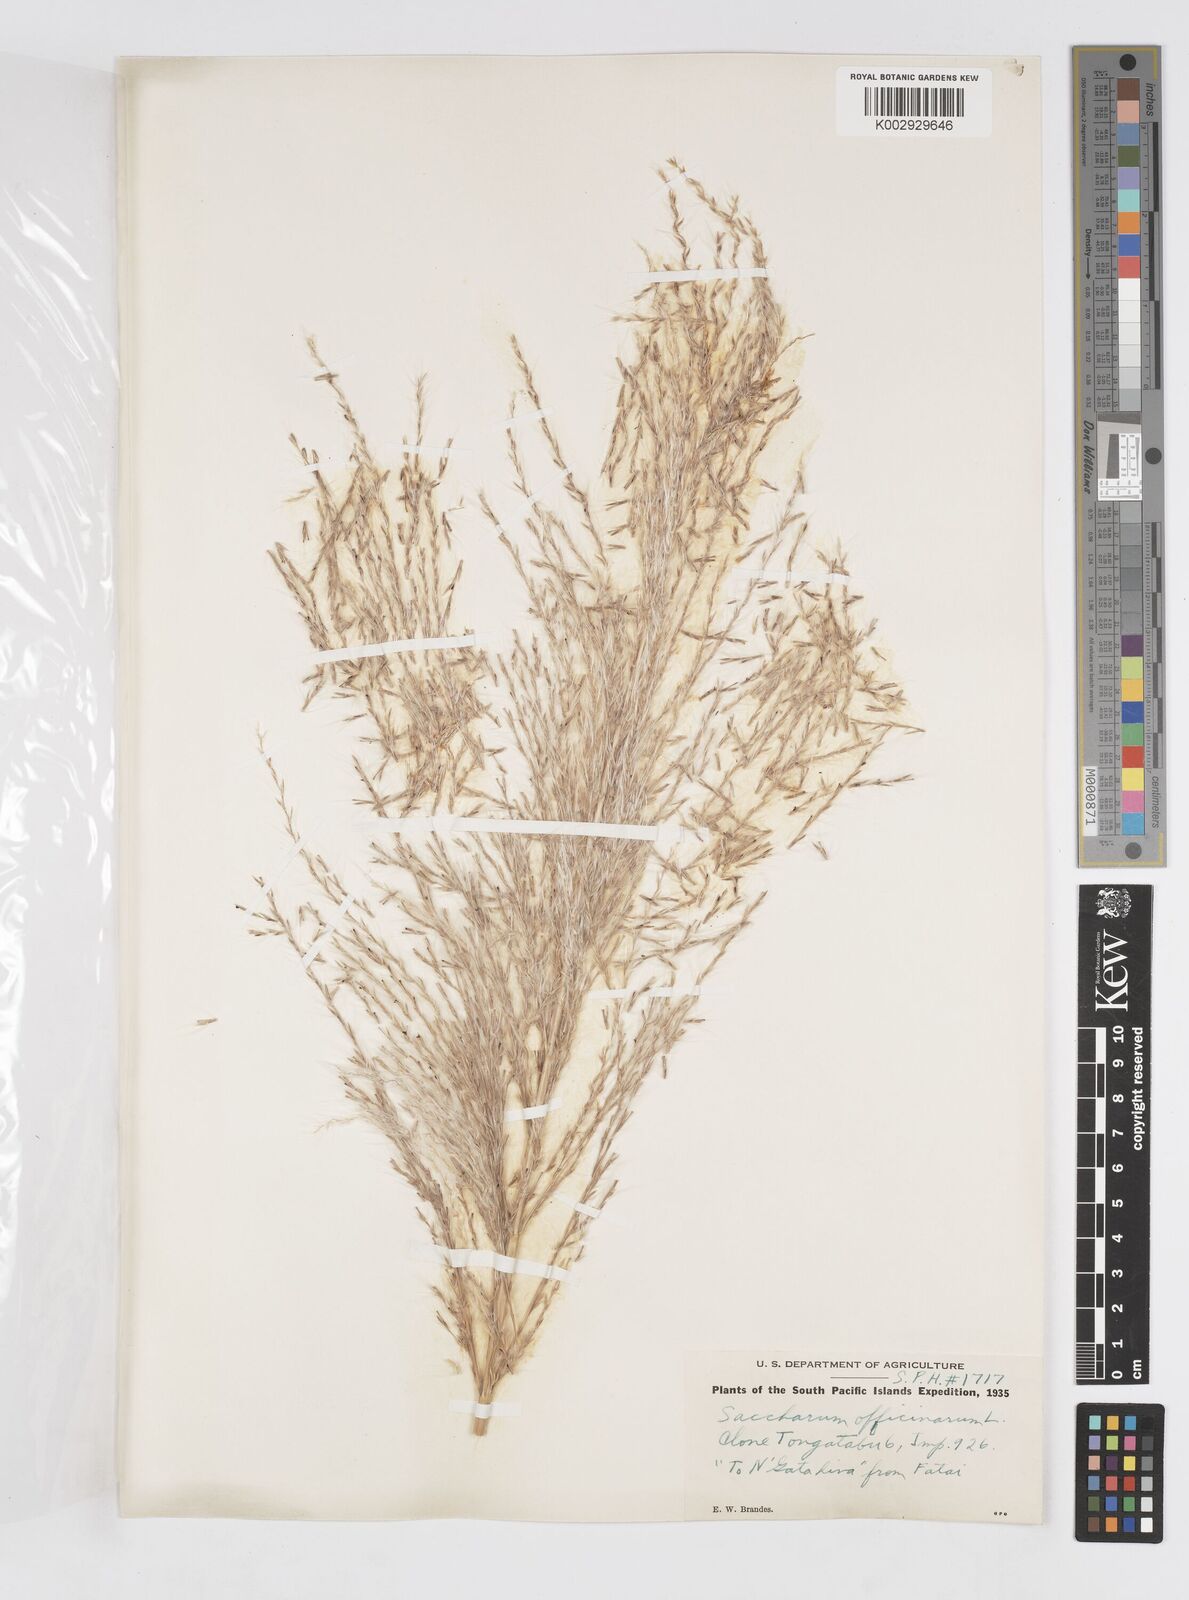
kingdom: Plantae
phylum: Tracheophyta
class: Liliopsida
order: Poales
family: Poaceae
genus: Saccharum
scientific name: Saccharum officinarum
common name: Sugarcane
